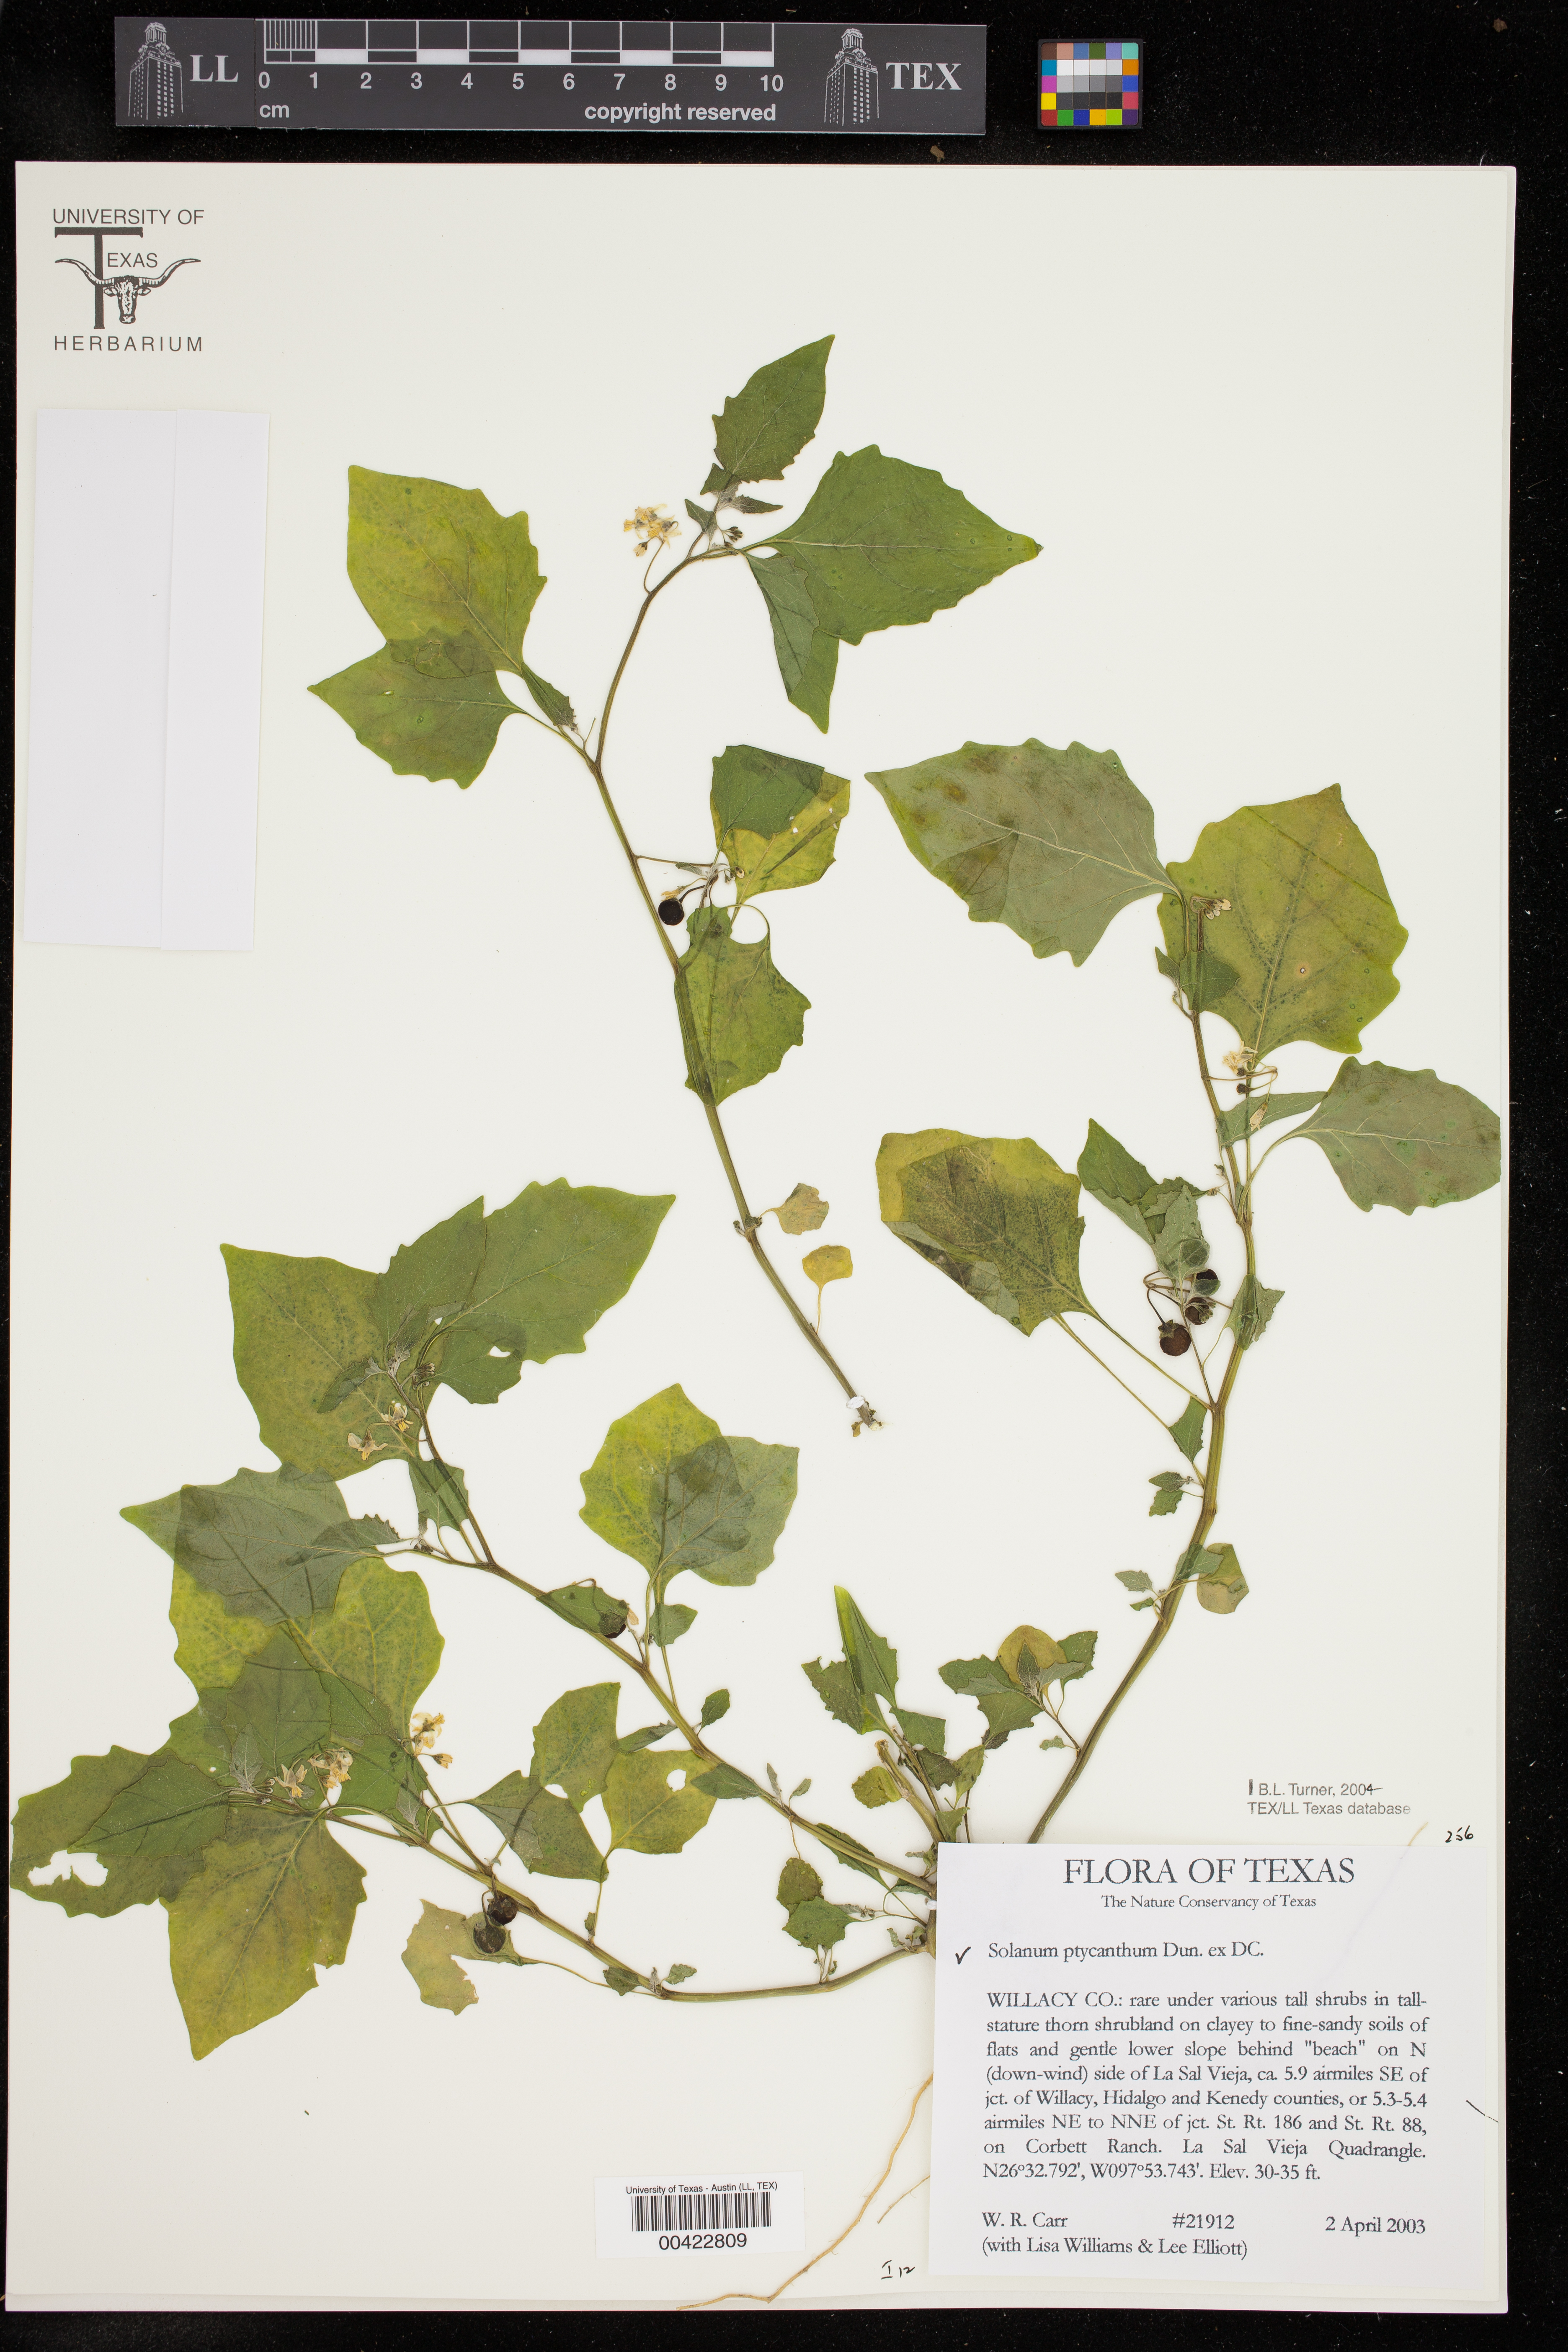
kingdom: Plantae
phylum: Tracheophyta
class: Magnoliopsida
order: Solanales
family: Solanaceae
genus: Solanum
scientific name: Solanum americanum
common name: American black nightshade
